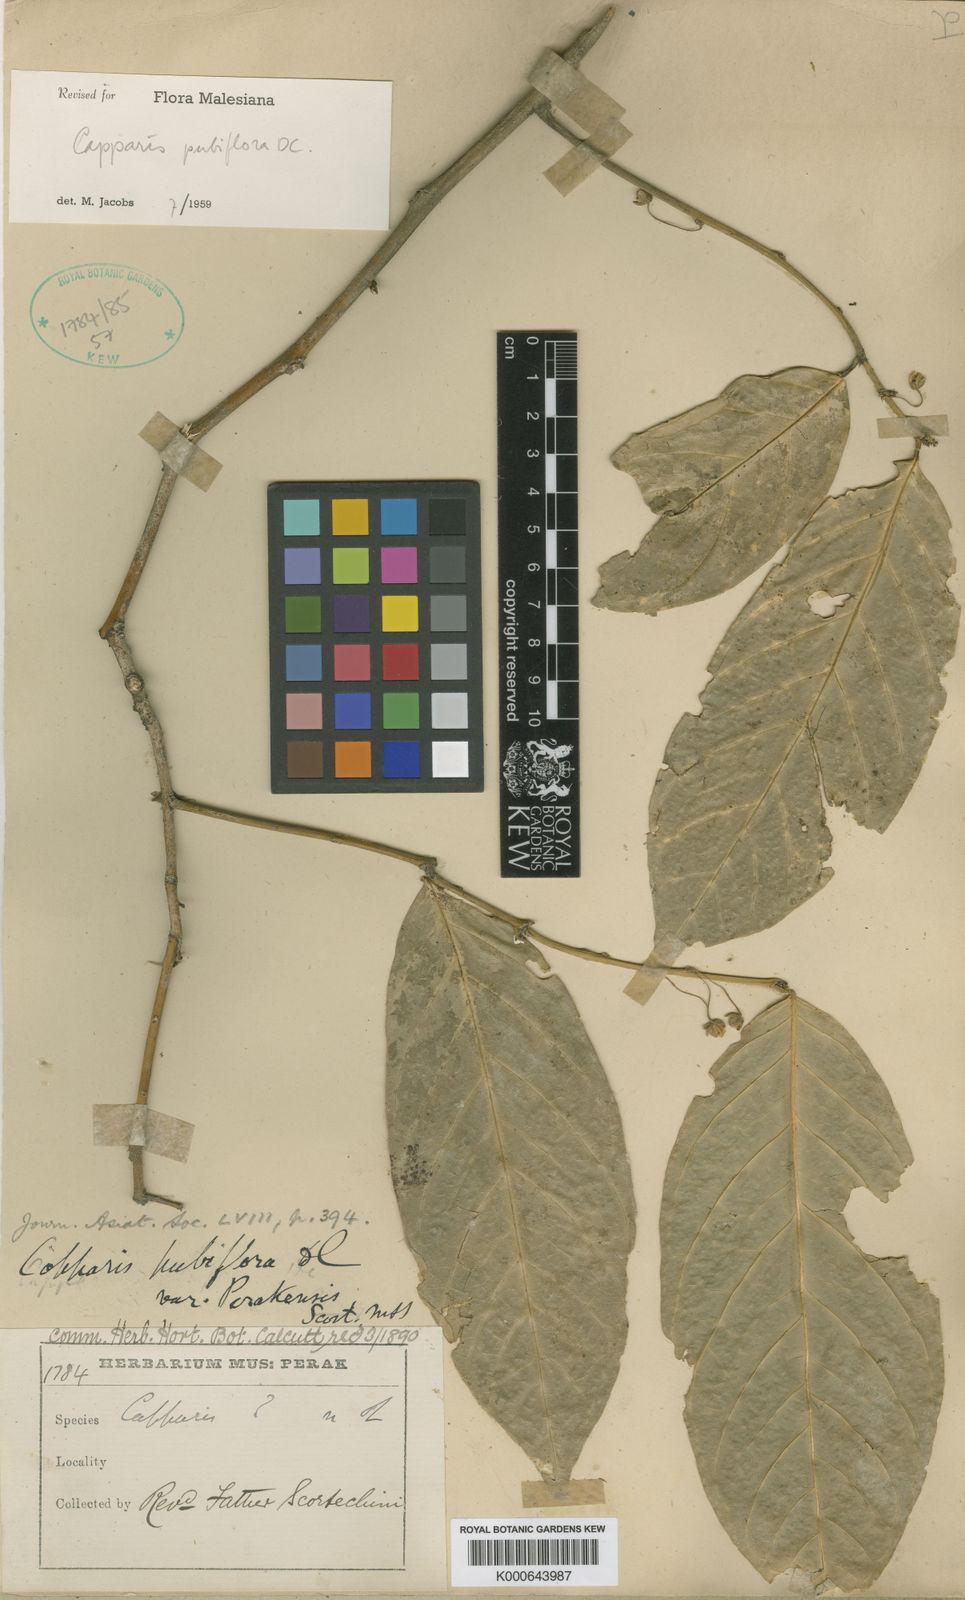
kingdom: Plantae
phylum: Tracheophyta
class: Magnoliopsida
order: Brassicales
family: Capparaceae
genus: Capparis
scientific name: Capparis pubiflora
